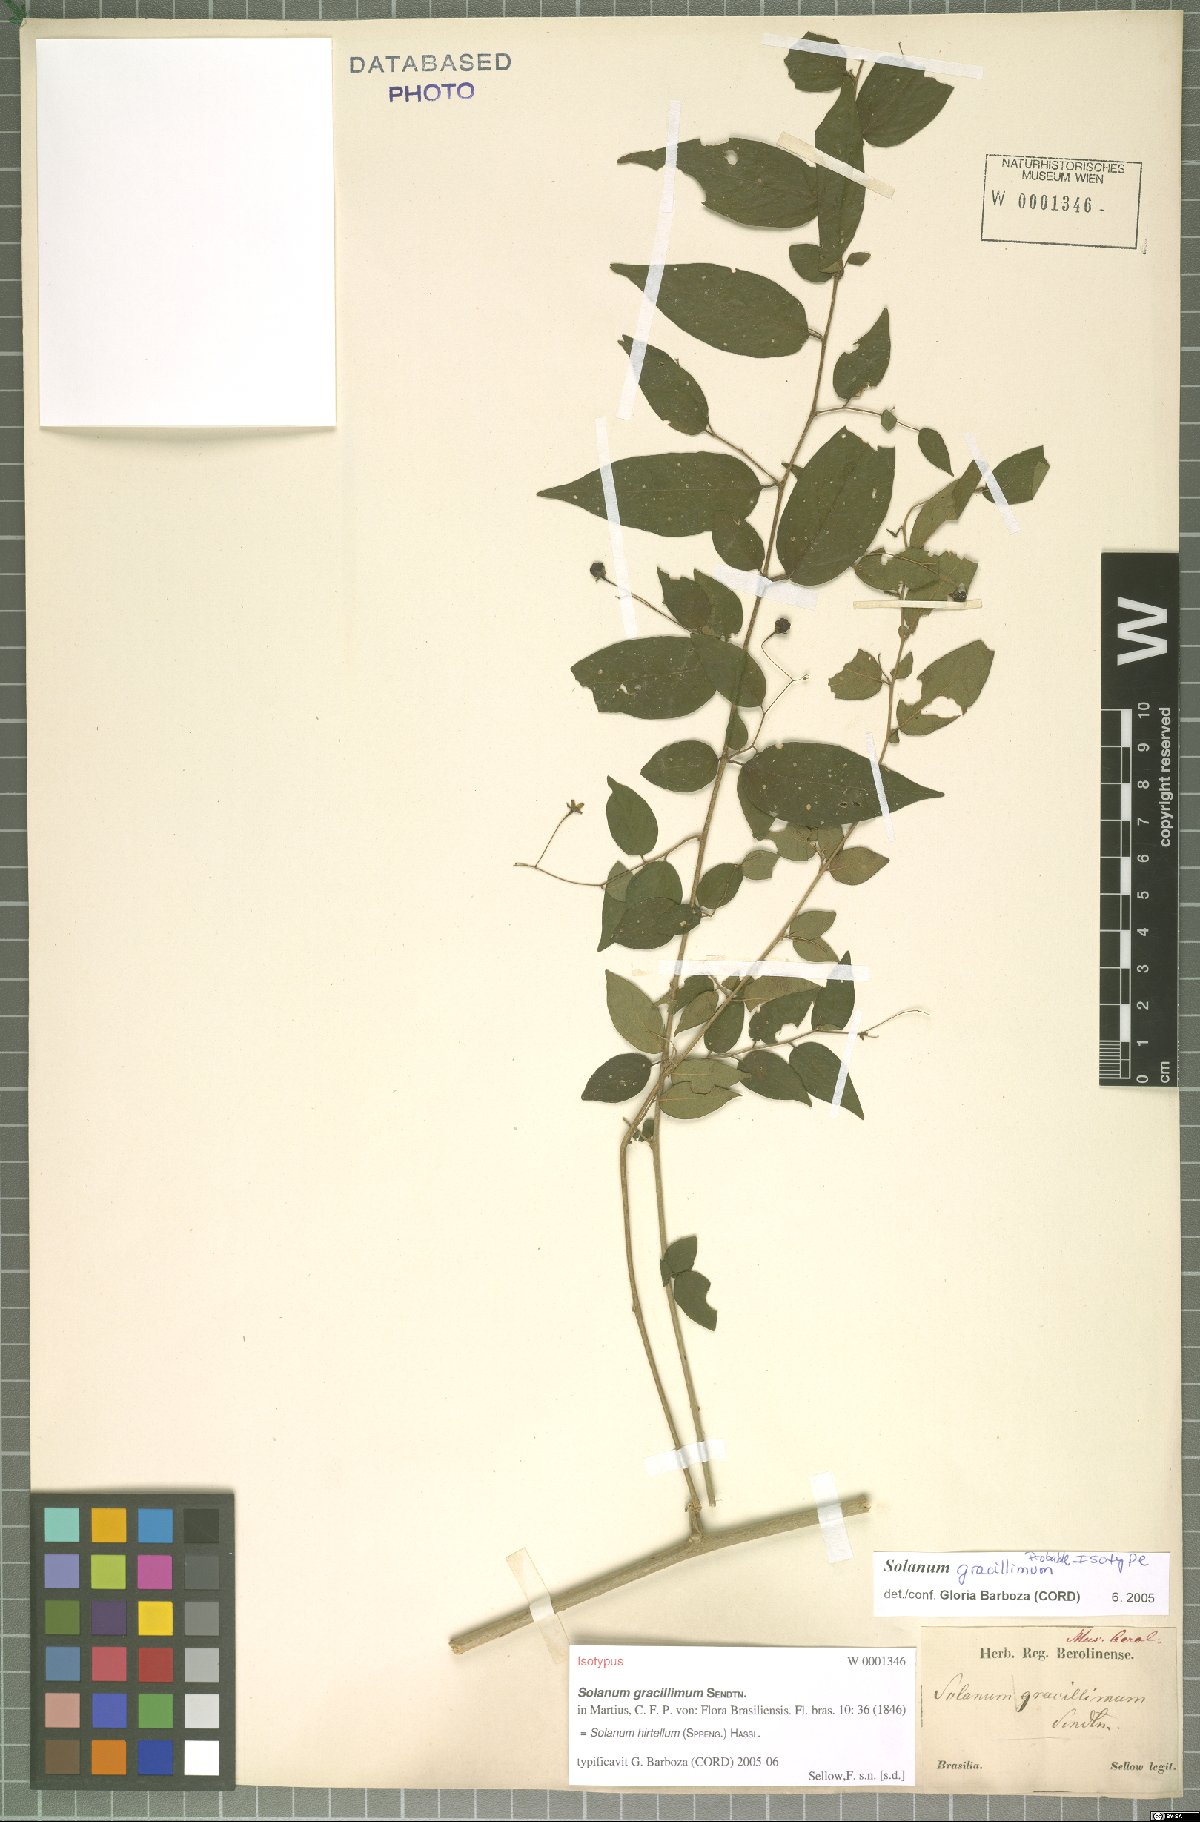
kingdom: Plantae
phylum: Tracheophyta
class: Magnoliopsida
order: Solanales
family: Solanaceae
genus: Solanum
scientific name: Solanum hirtellum
